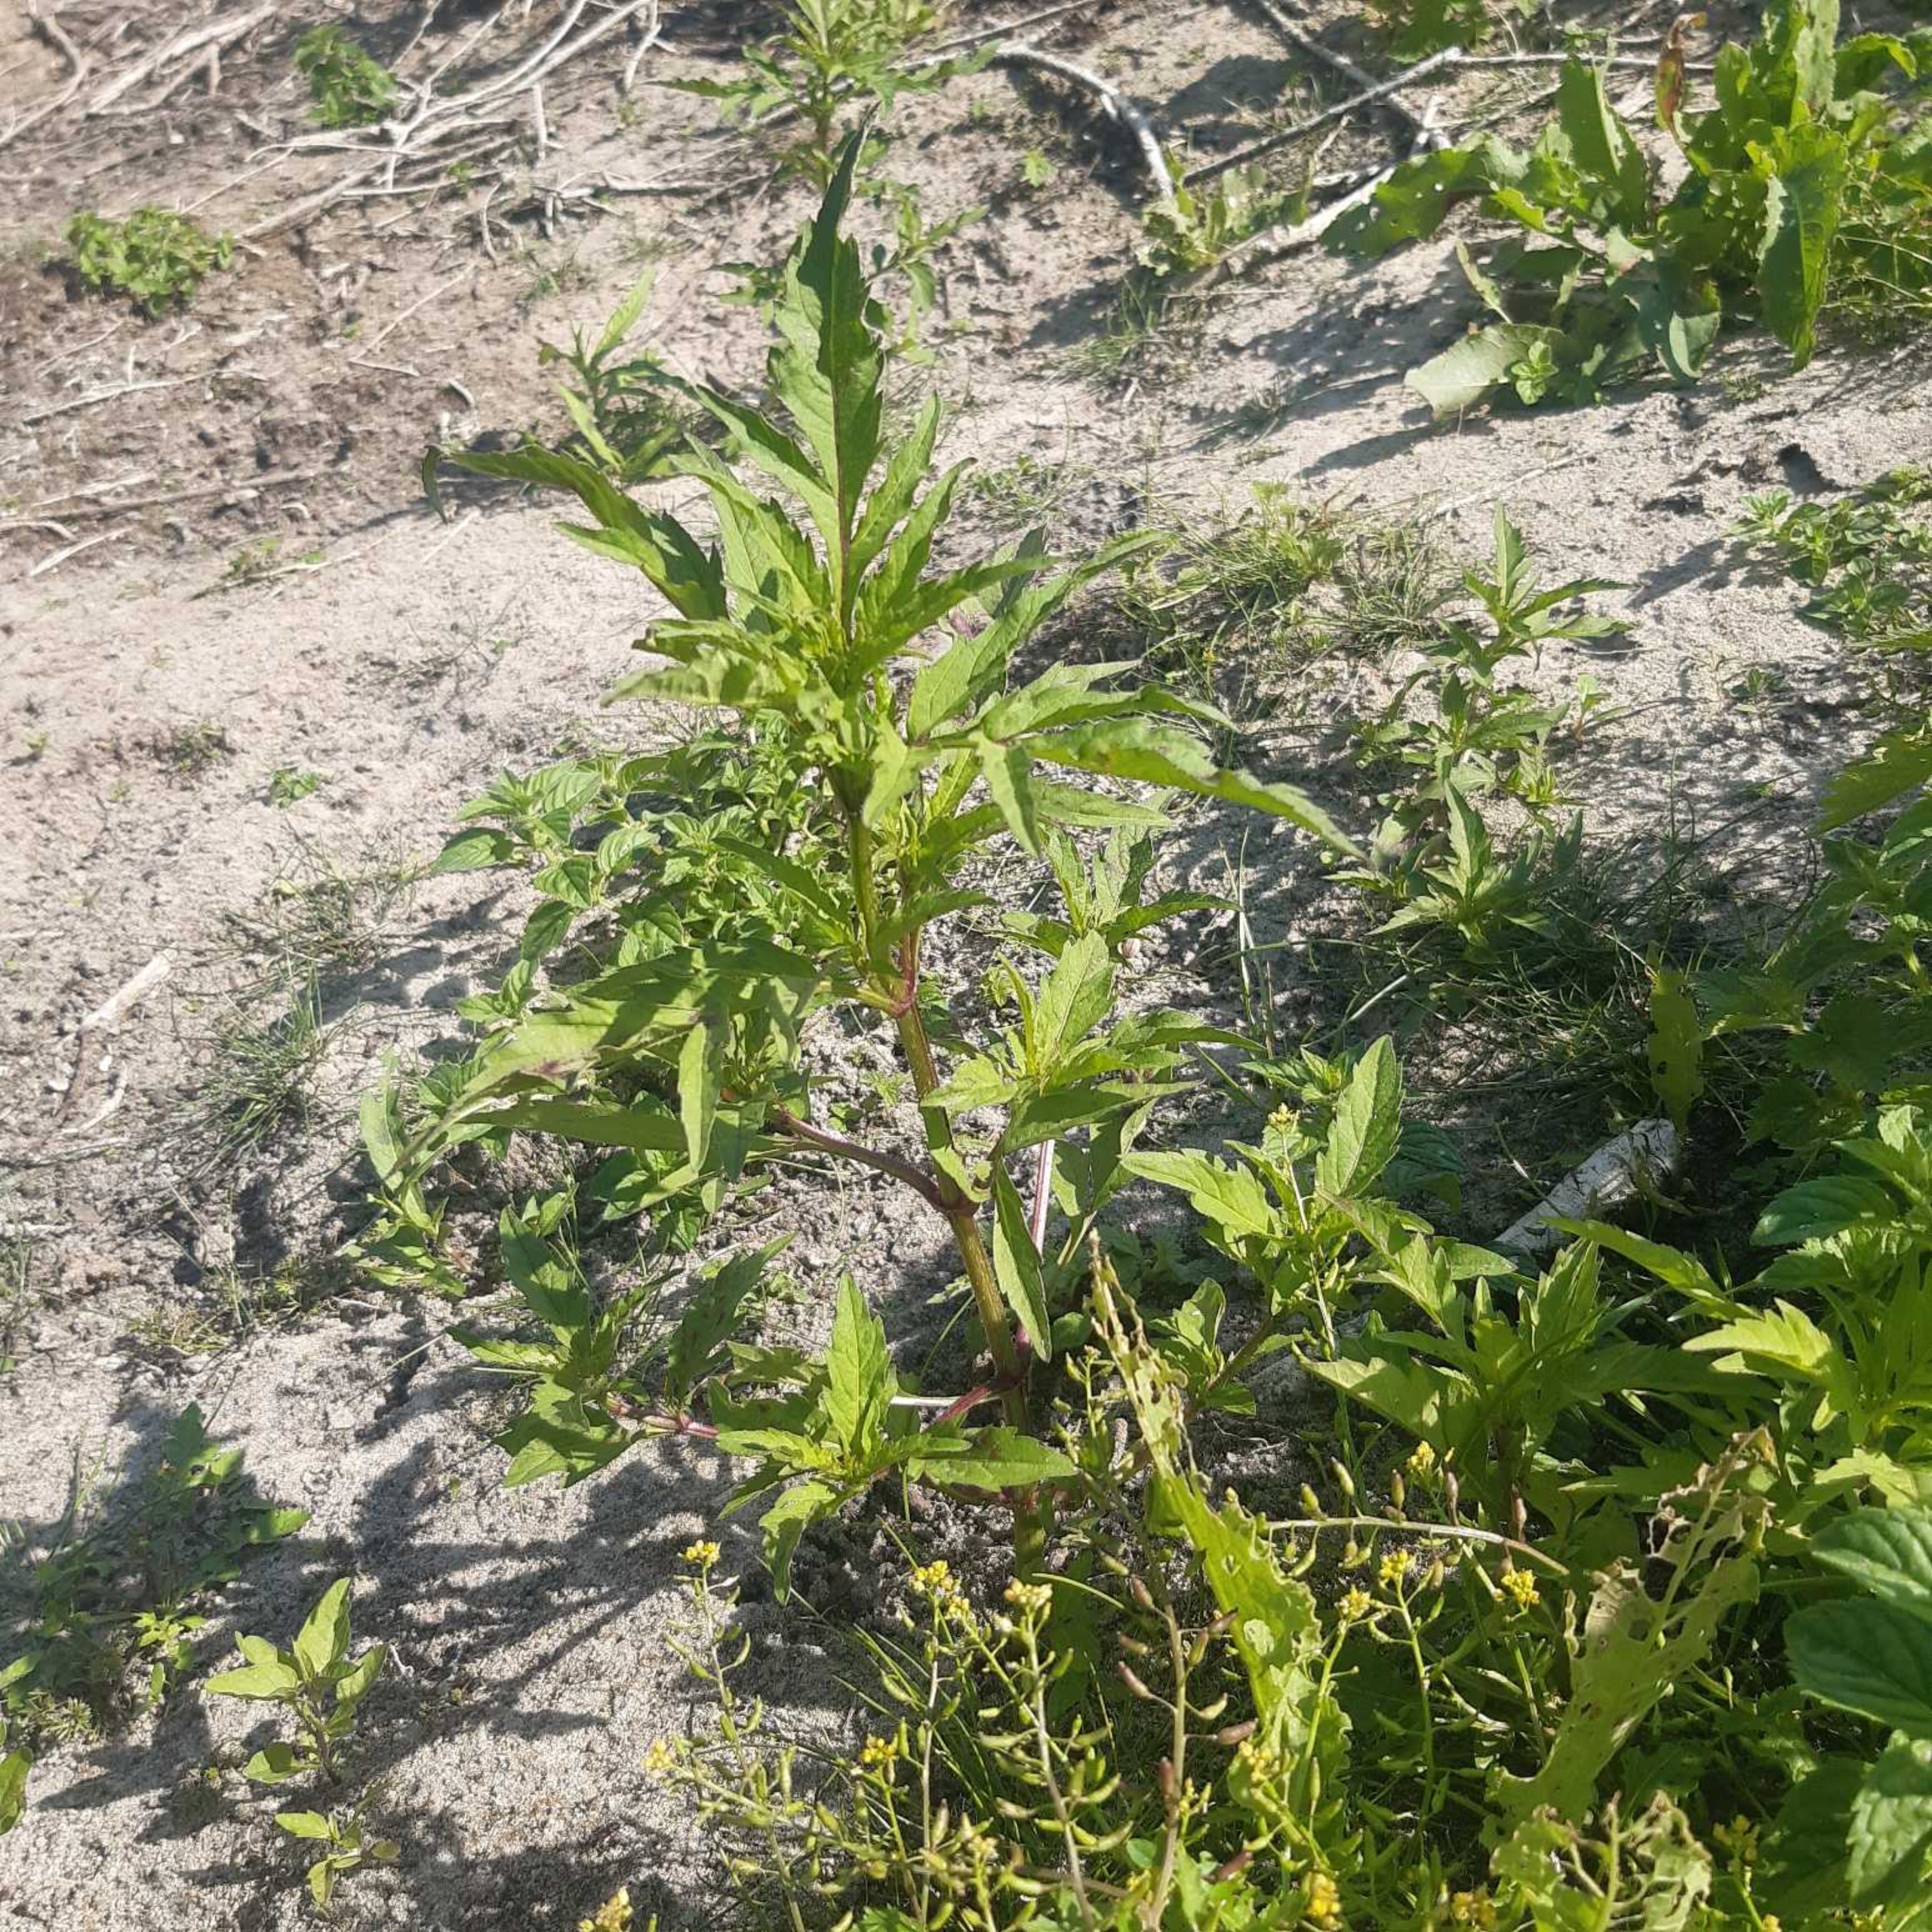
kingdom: Plantae
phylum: Tracheophyta
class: Magnoliopsida
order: Asterales
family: Asteraceae
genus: Bidens
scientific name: Bidens tripartita
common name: Fliget brøndsel
